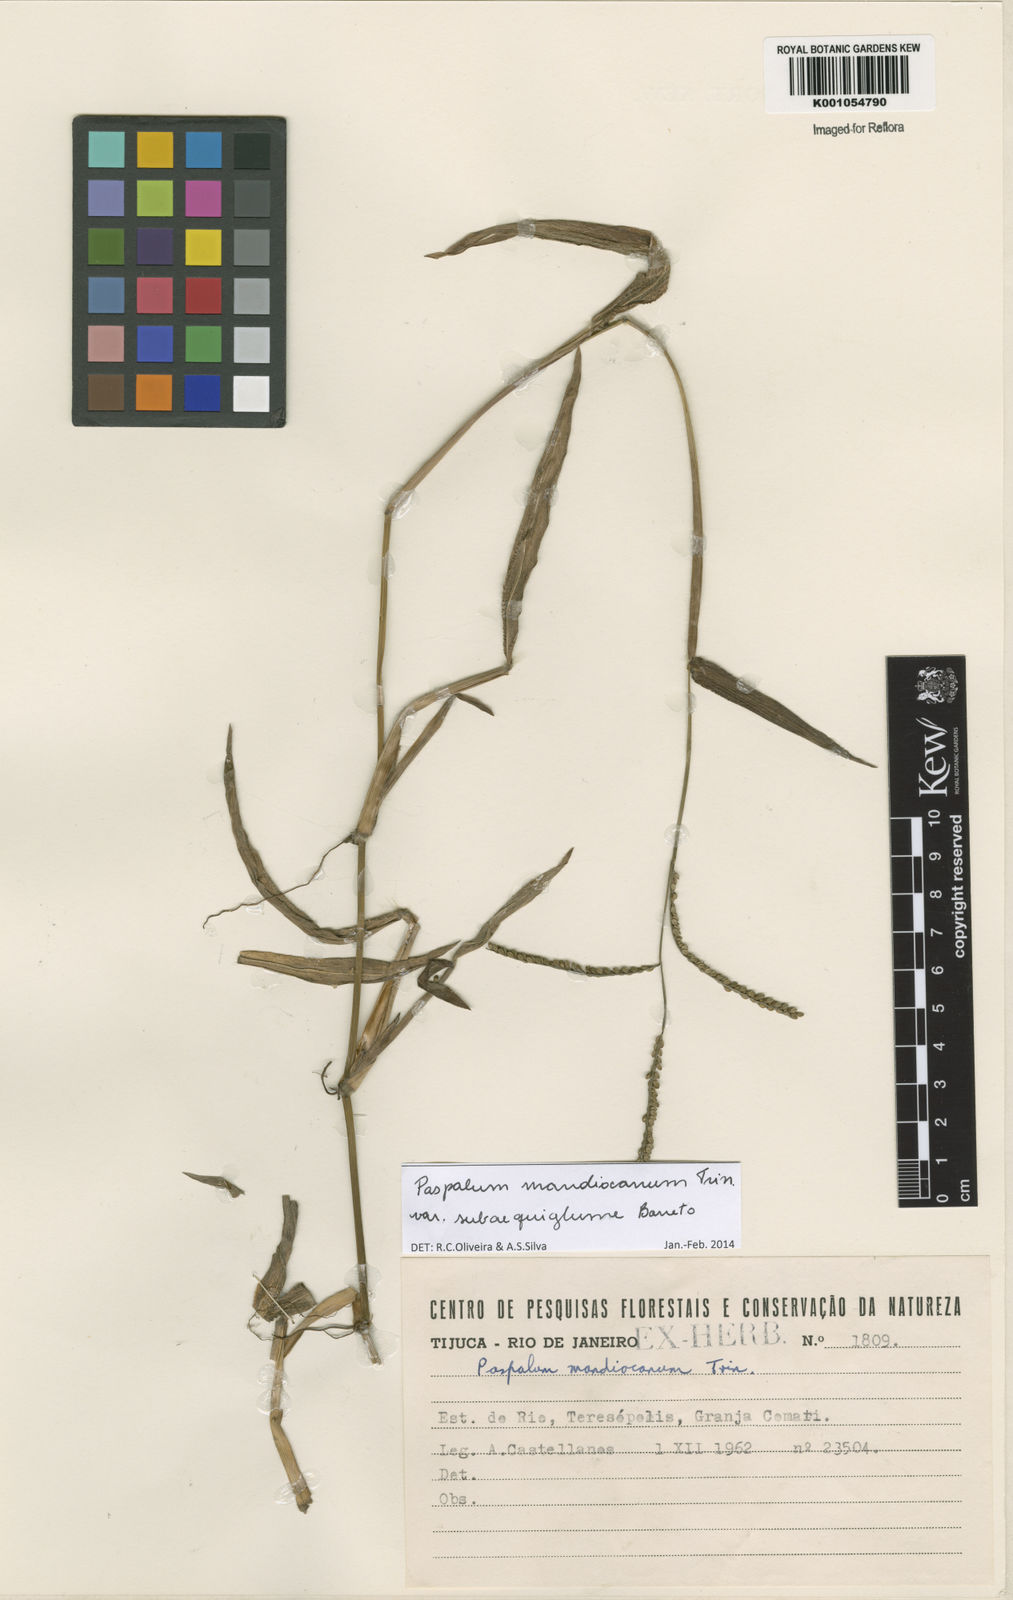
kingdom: Plantae
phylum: Tracheophyta
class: Liliopsida
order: Poales
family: Poaceae
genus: Paspalum
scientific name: Paspalum mandiocanum
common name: Paspalum
